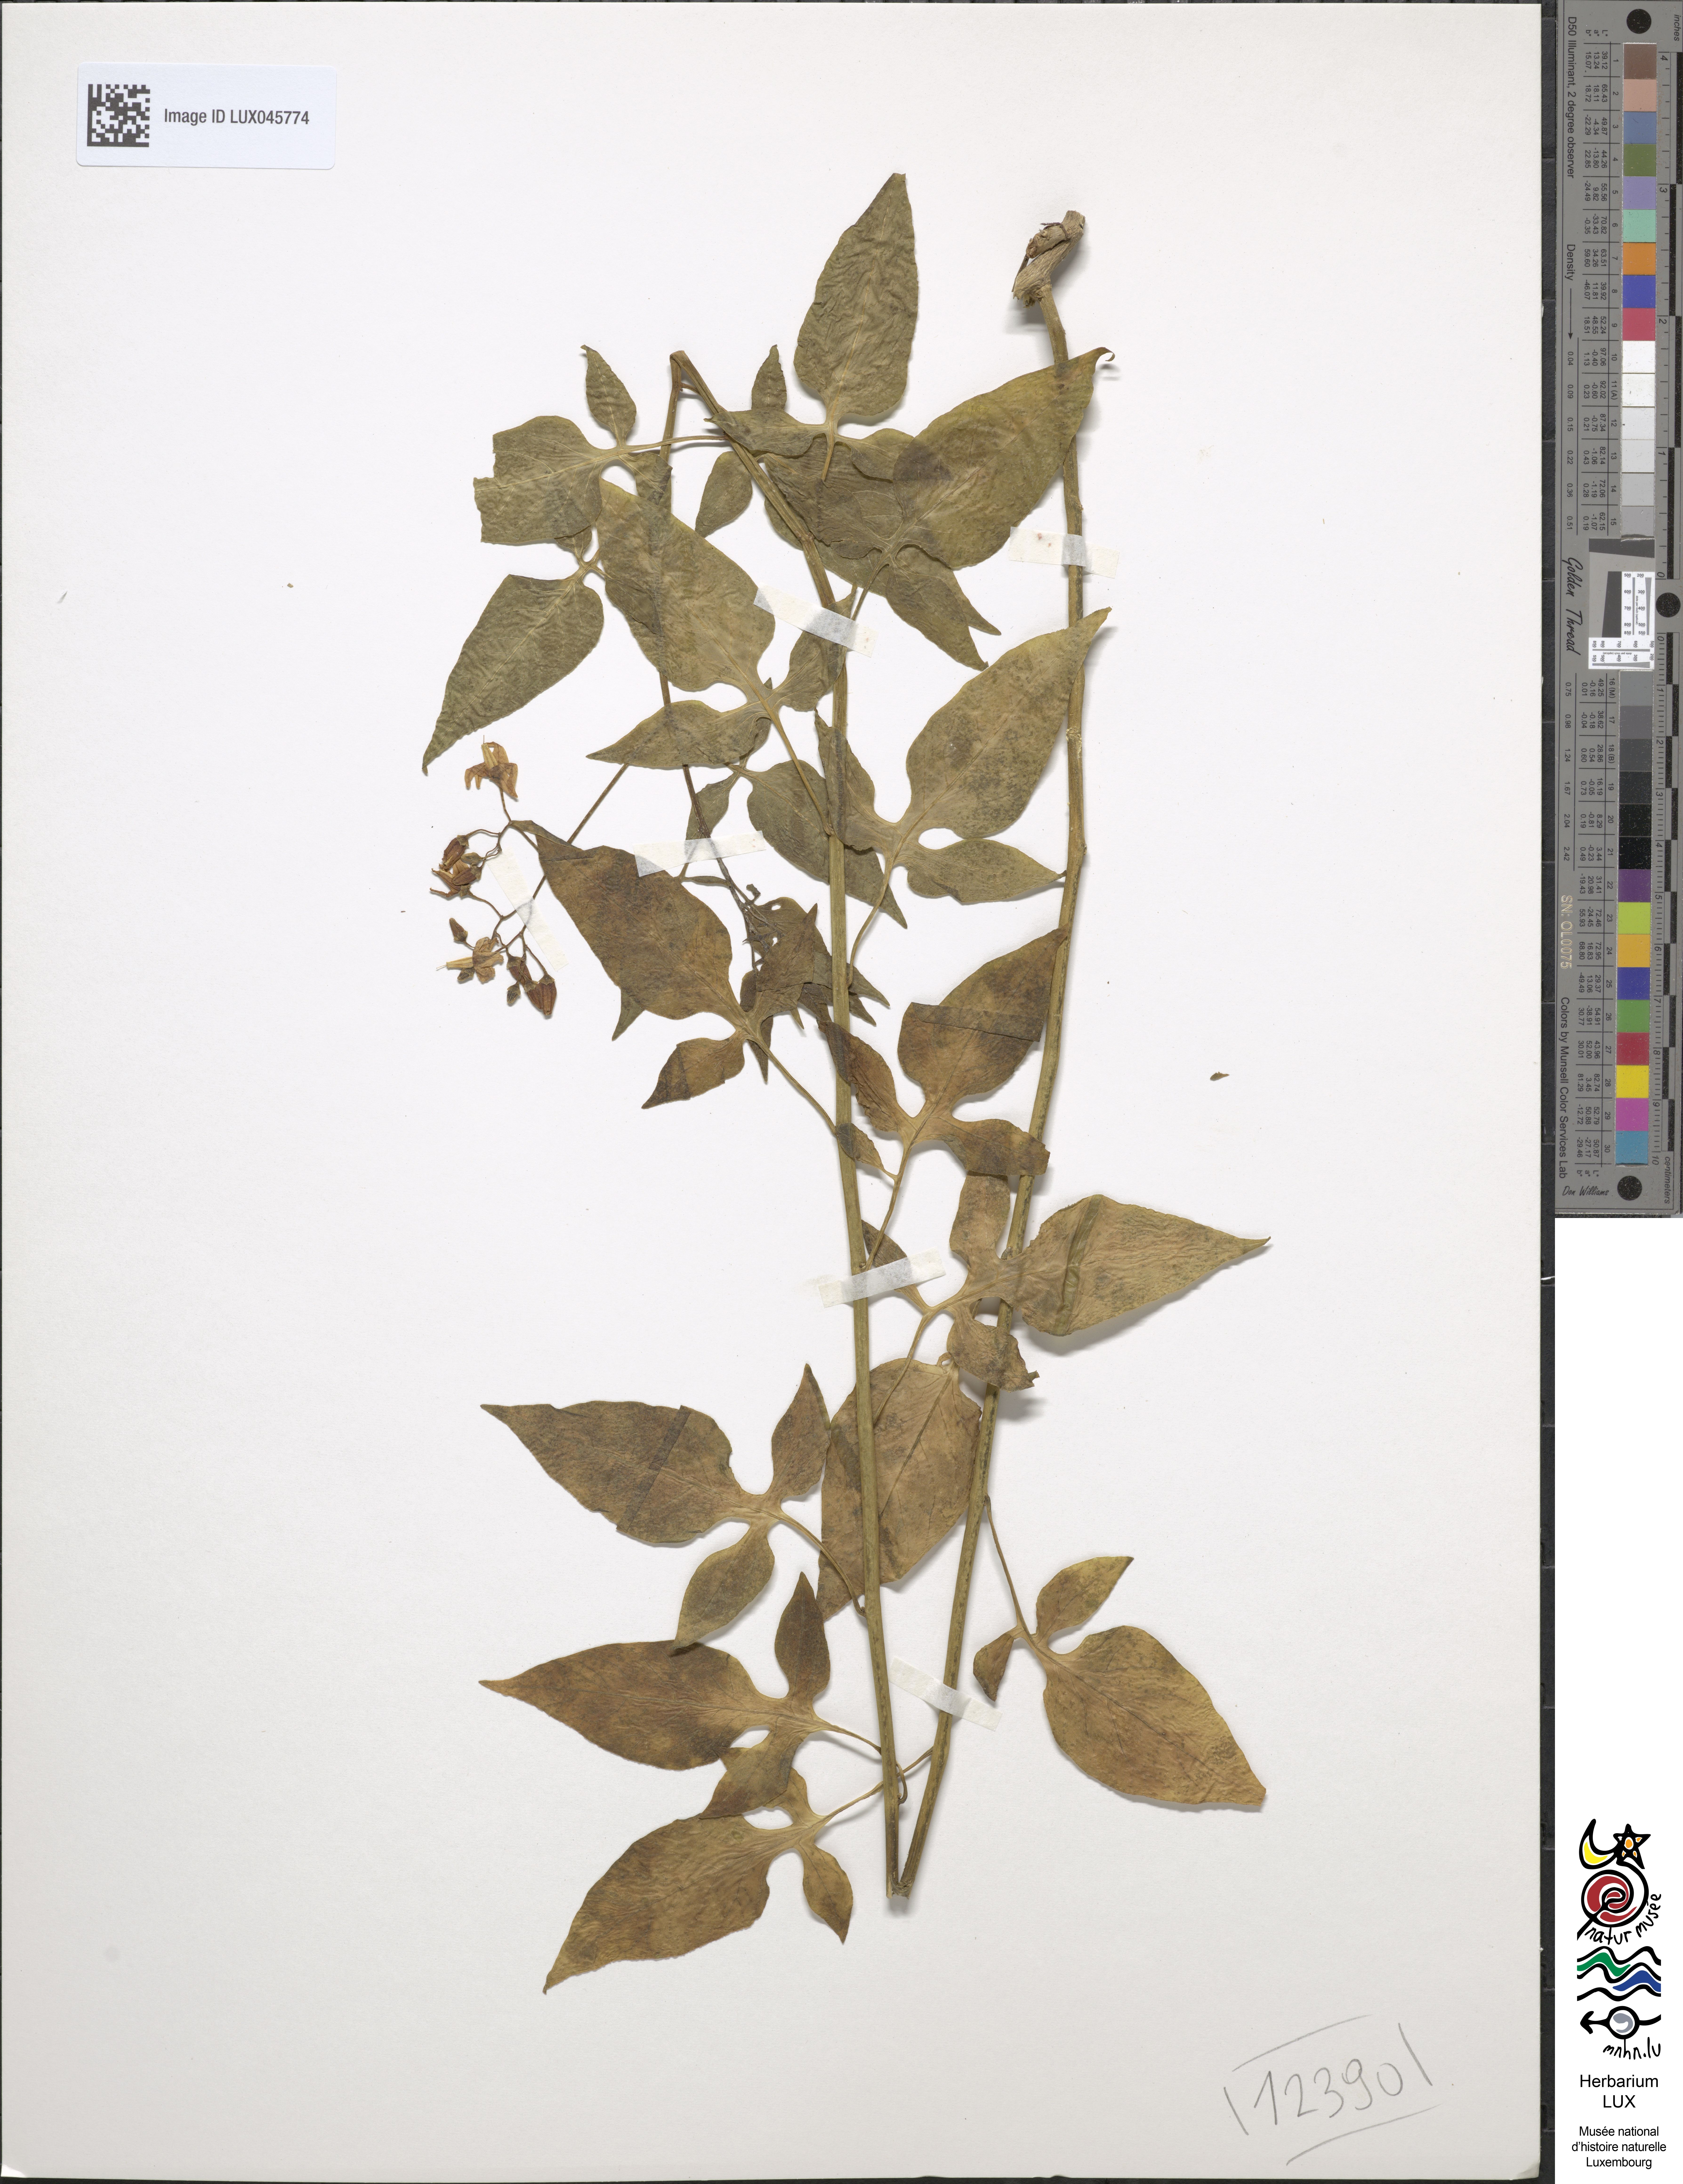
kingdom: Plantae
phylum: Tracheophyta
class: Magnoliopsida
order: Solanales
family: Solanaceae
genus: Solanum
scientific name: Solanum dulcamara
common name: Climbing nightshade
